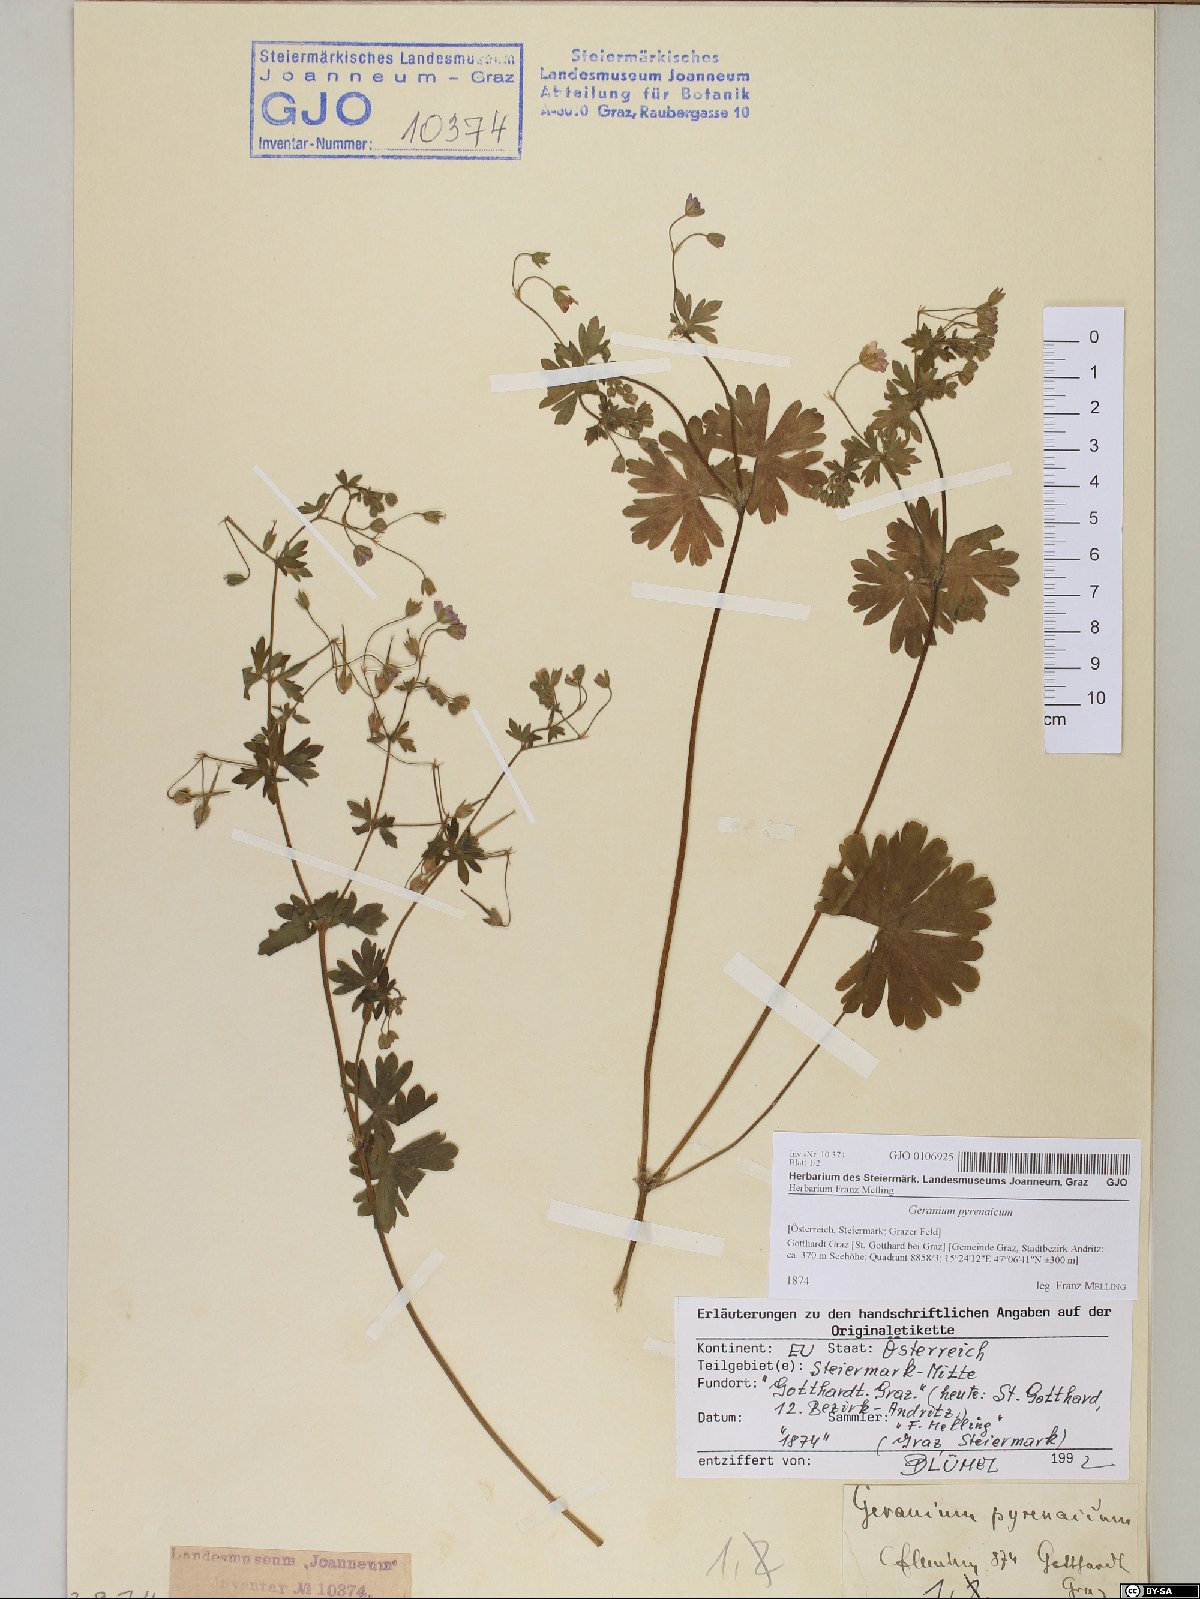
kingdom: Plantae
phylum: Tracheophyta
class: Magnoliopsida
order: Geraniales
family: Geraniaceae
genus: Geranium
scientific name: Geranium pyrenaicum
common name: Hedgerow crane's-bill
